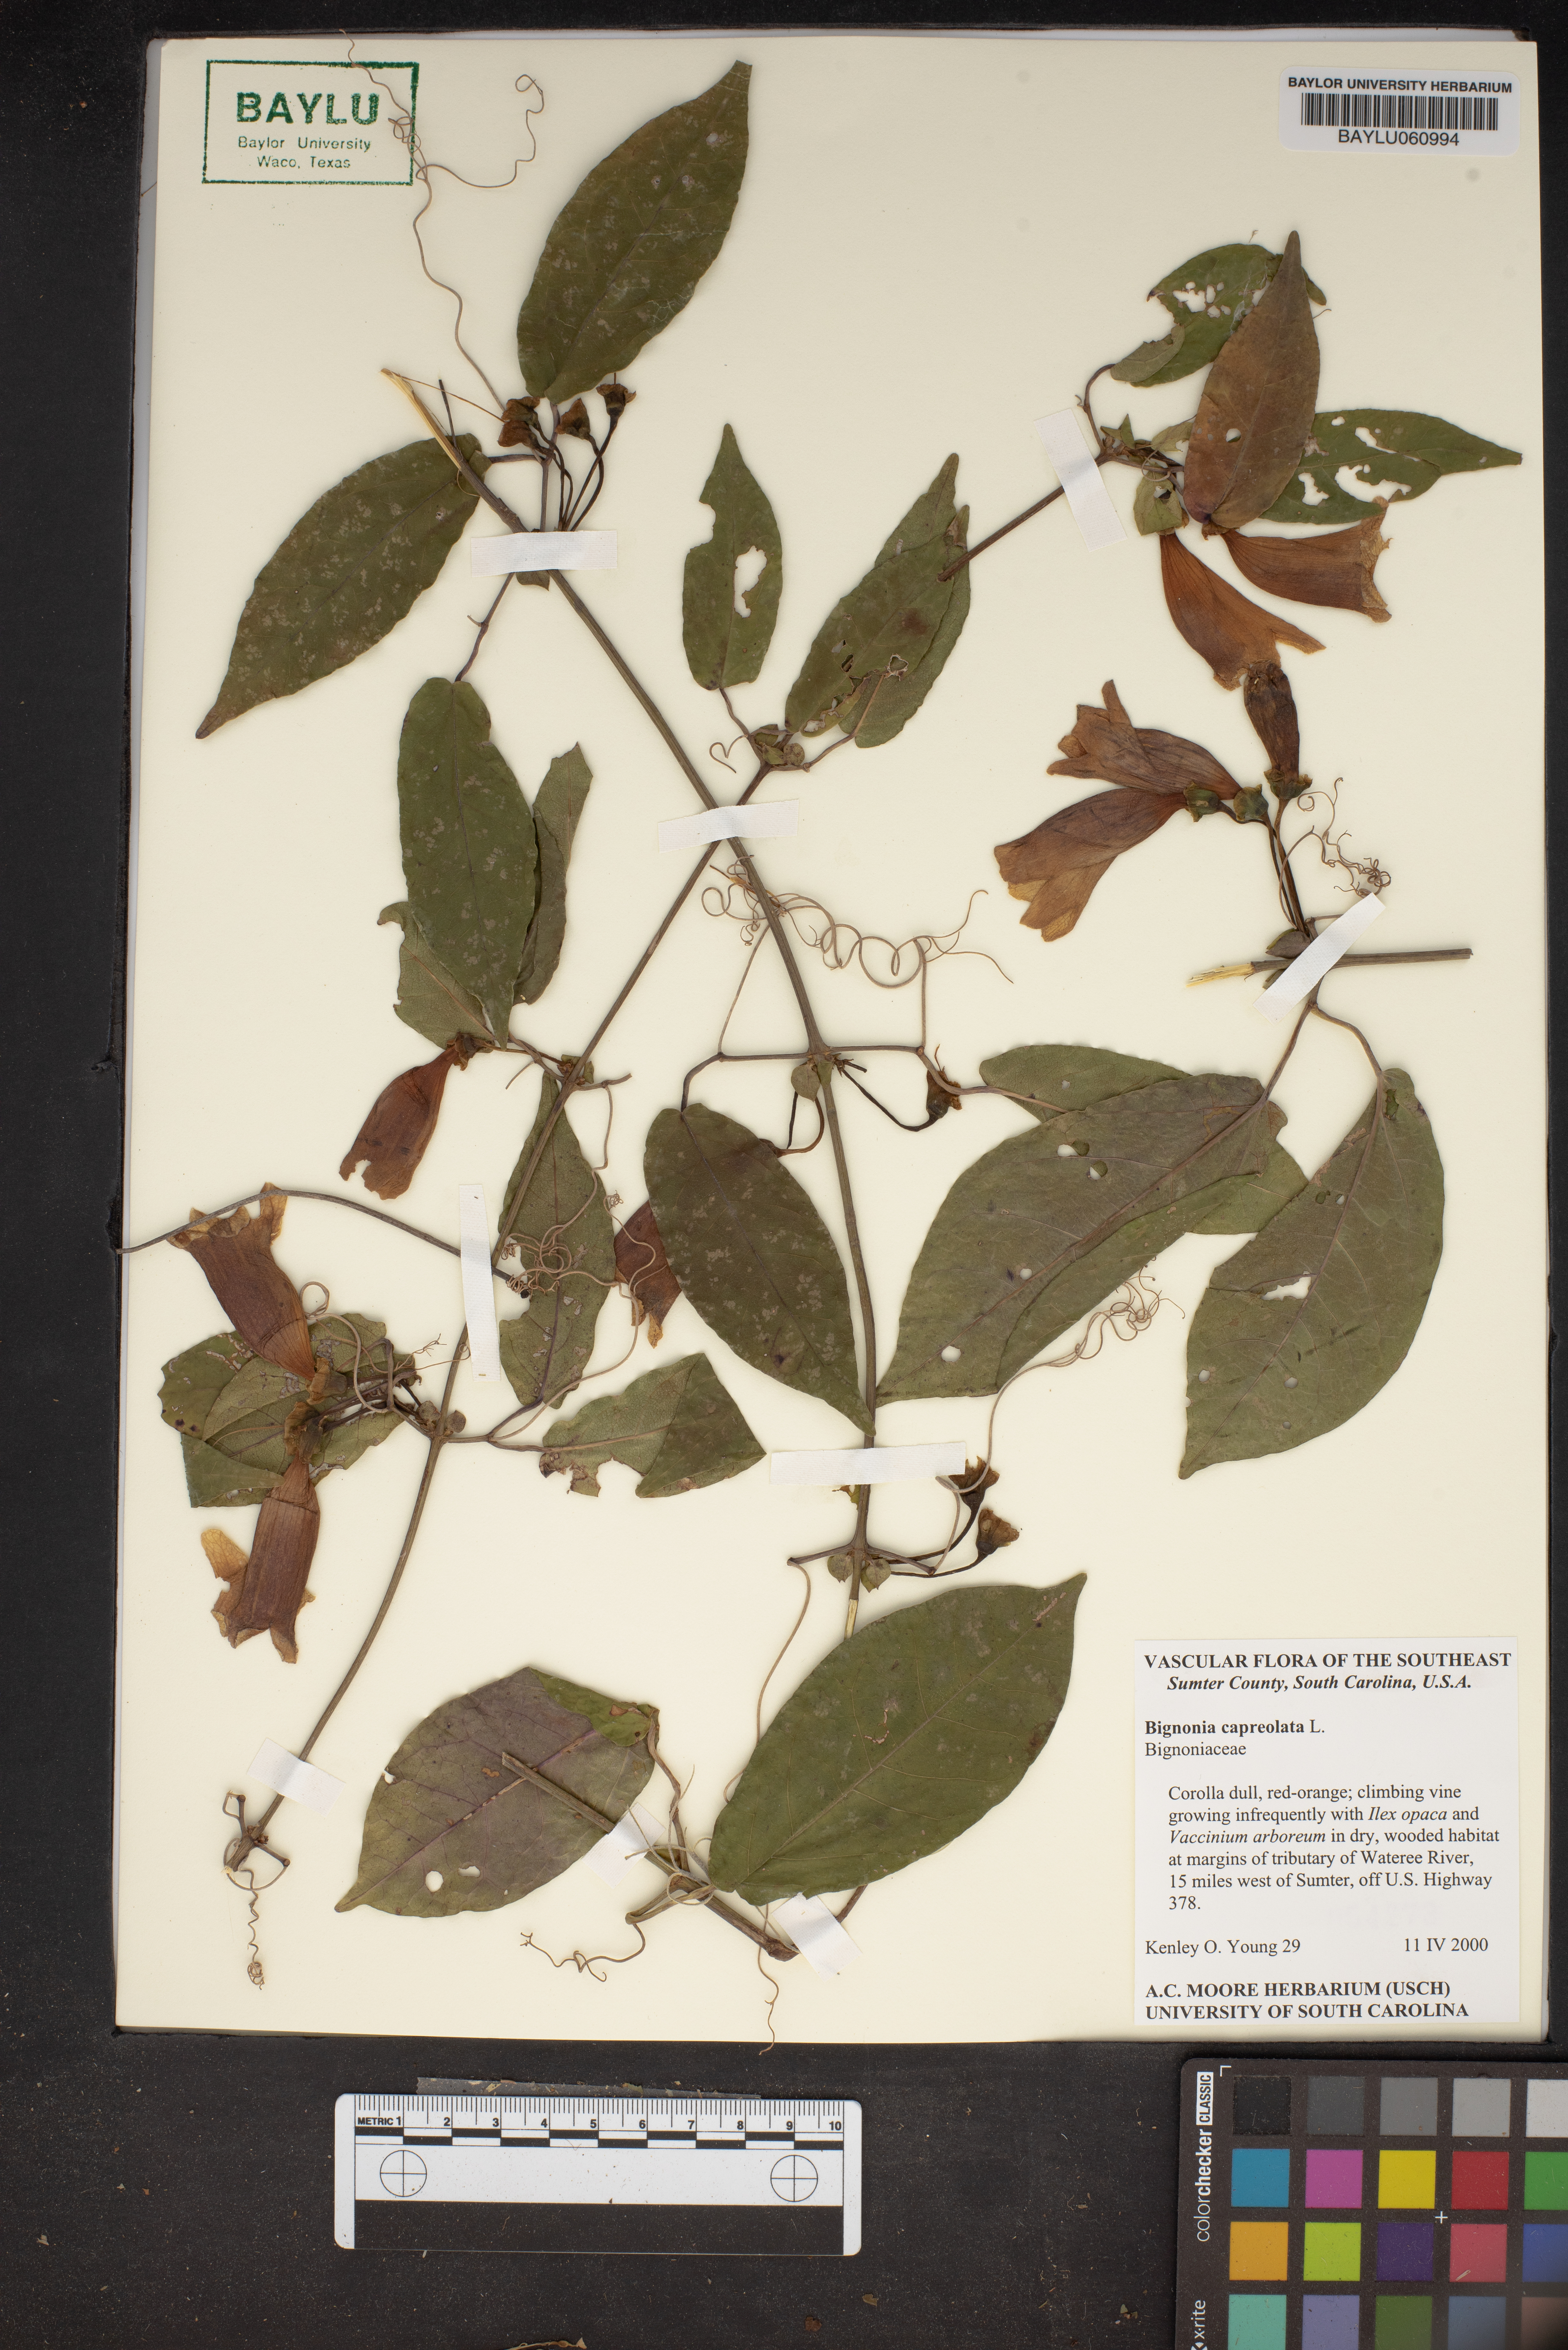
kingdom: Plantae
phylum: Tracheophyta
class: Magnoliopsida
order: Lamiales
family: Bignoniaceae
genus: Bignonia
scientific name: Bignonia capreolata
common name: Crossvine
